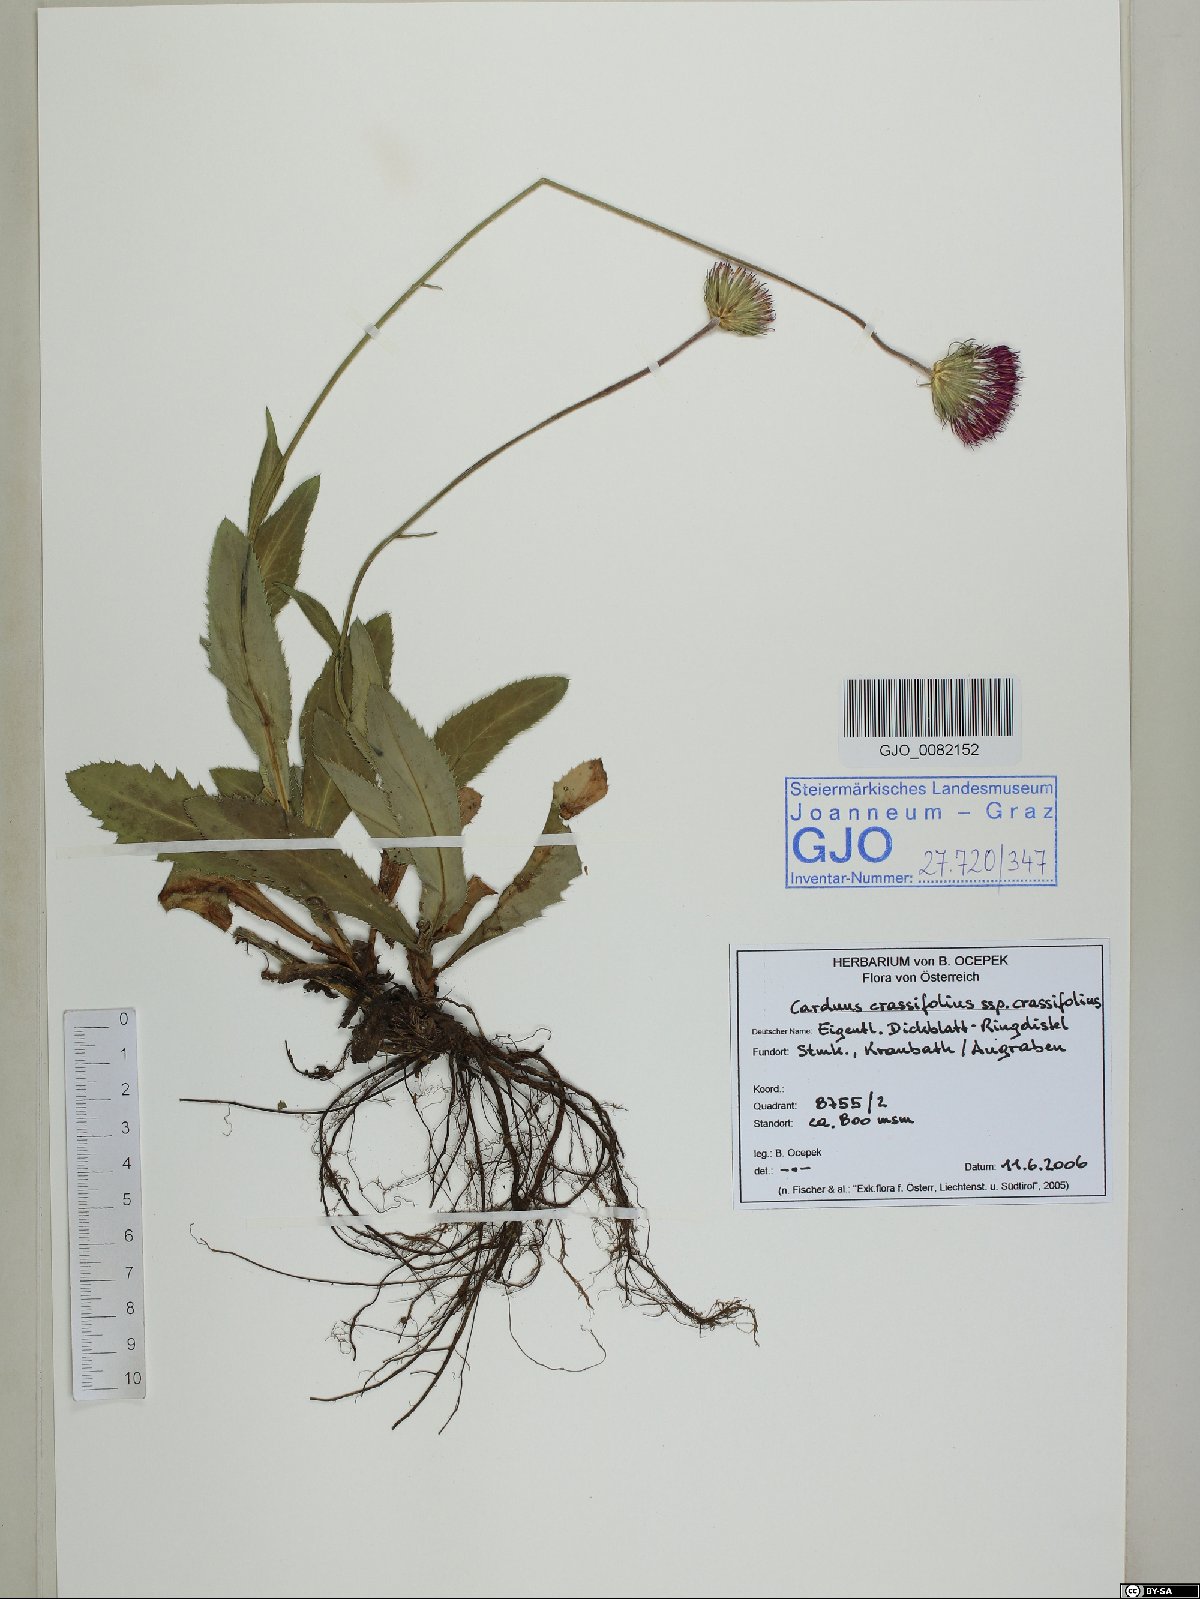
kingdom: Plantae
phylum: Tracheophyta
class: Magnoliopsida
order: Asterales
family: Asteraceae
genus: Carduus
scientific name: Carduus defloratus
